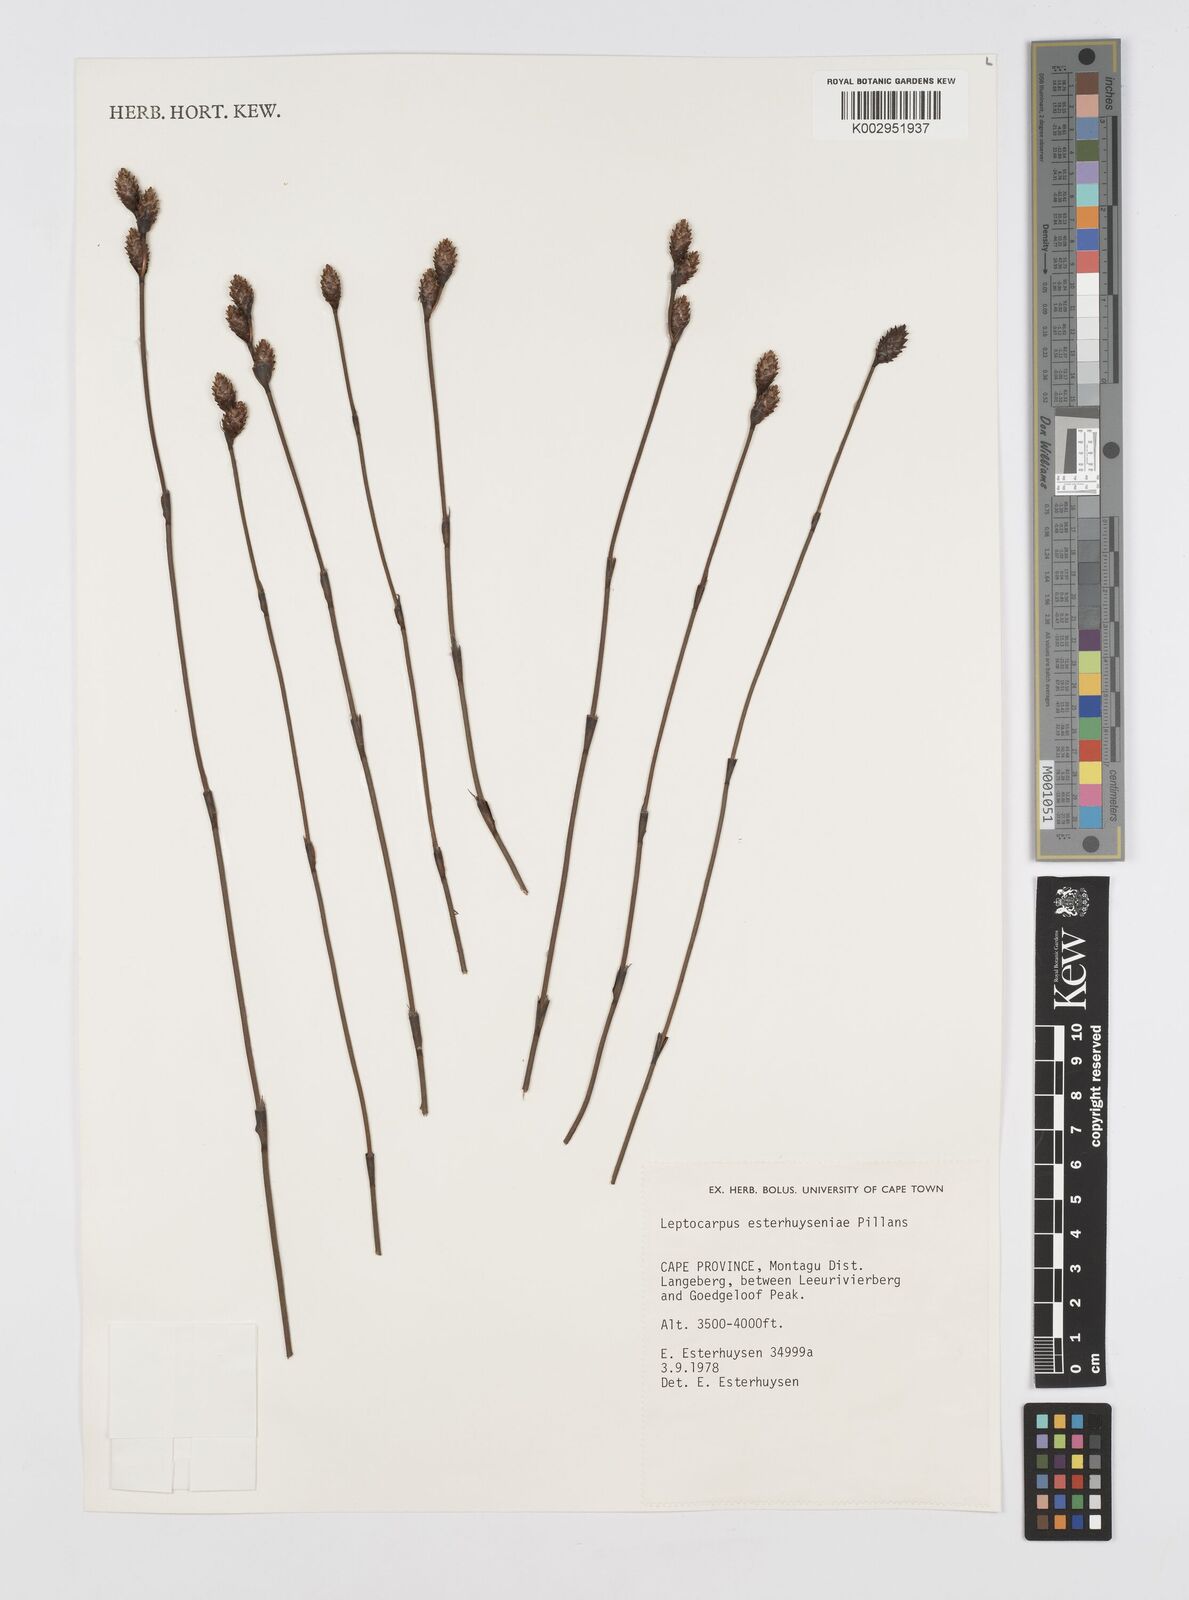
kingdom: Plantae
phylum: Tracheophyta
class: Liliopsida
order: Poales
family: Restionaceae
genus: Restio
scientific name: Restio esterhuyseniae
